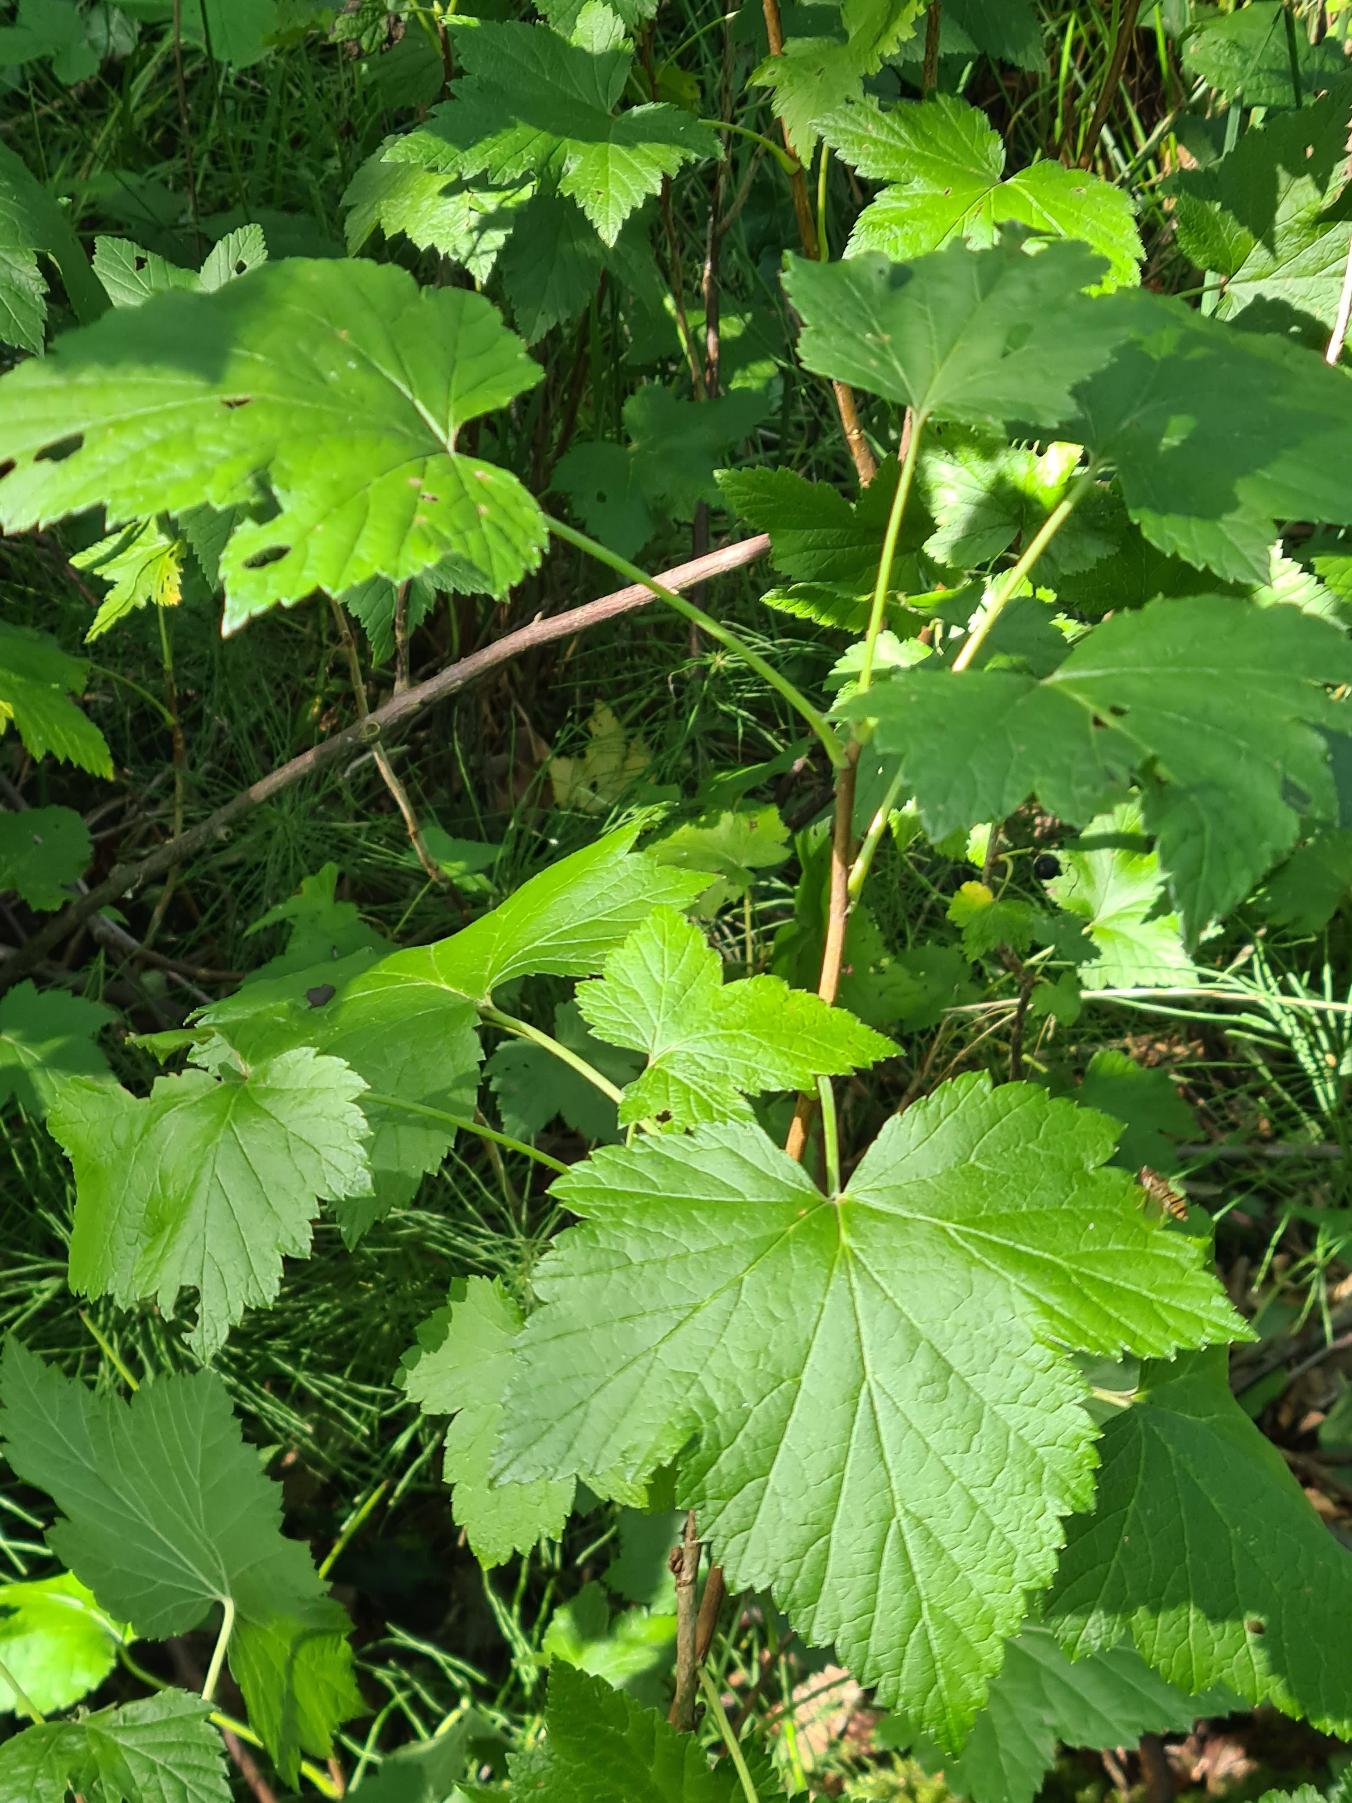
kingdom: Plantae
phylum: Tracheophyta
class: Magnoliopsida
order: Saxifragales
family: Grossulariaceae
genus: Ribes
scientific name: Ribes nigrum
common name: Solbær
